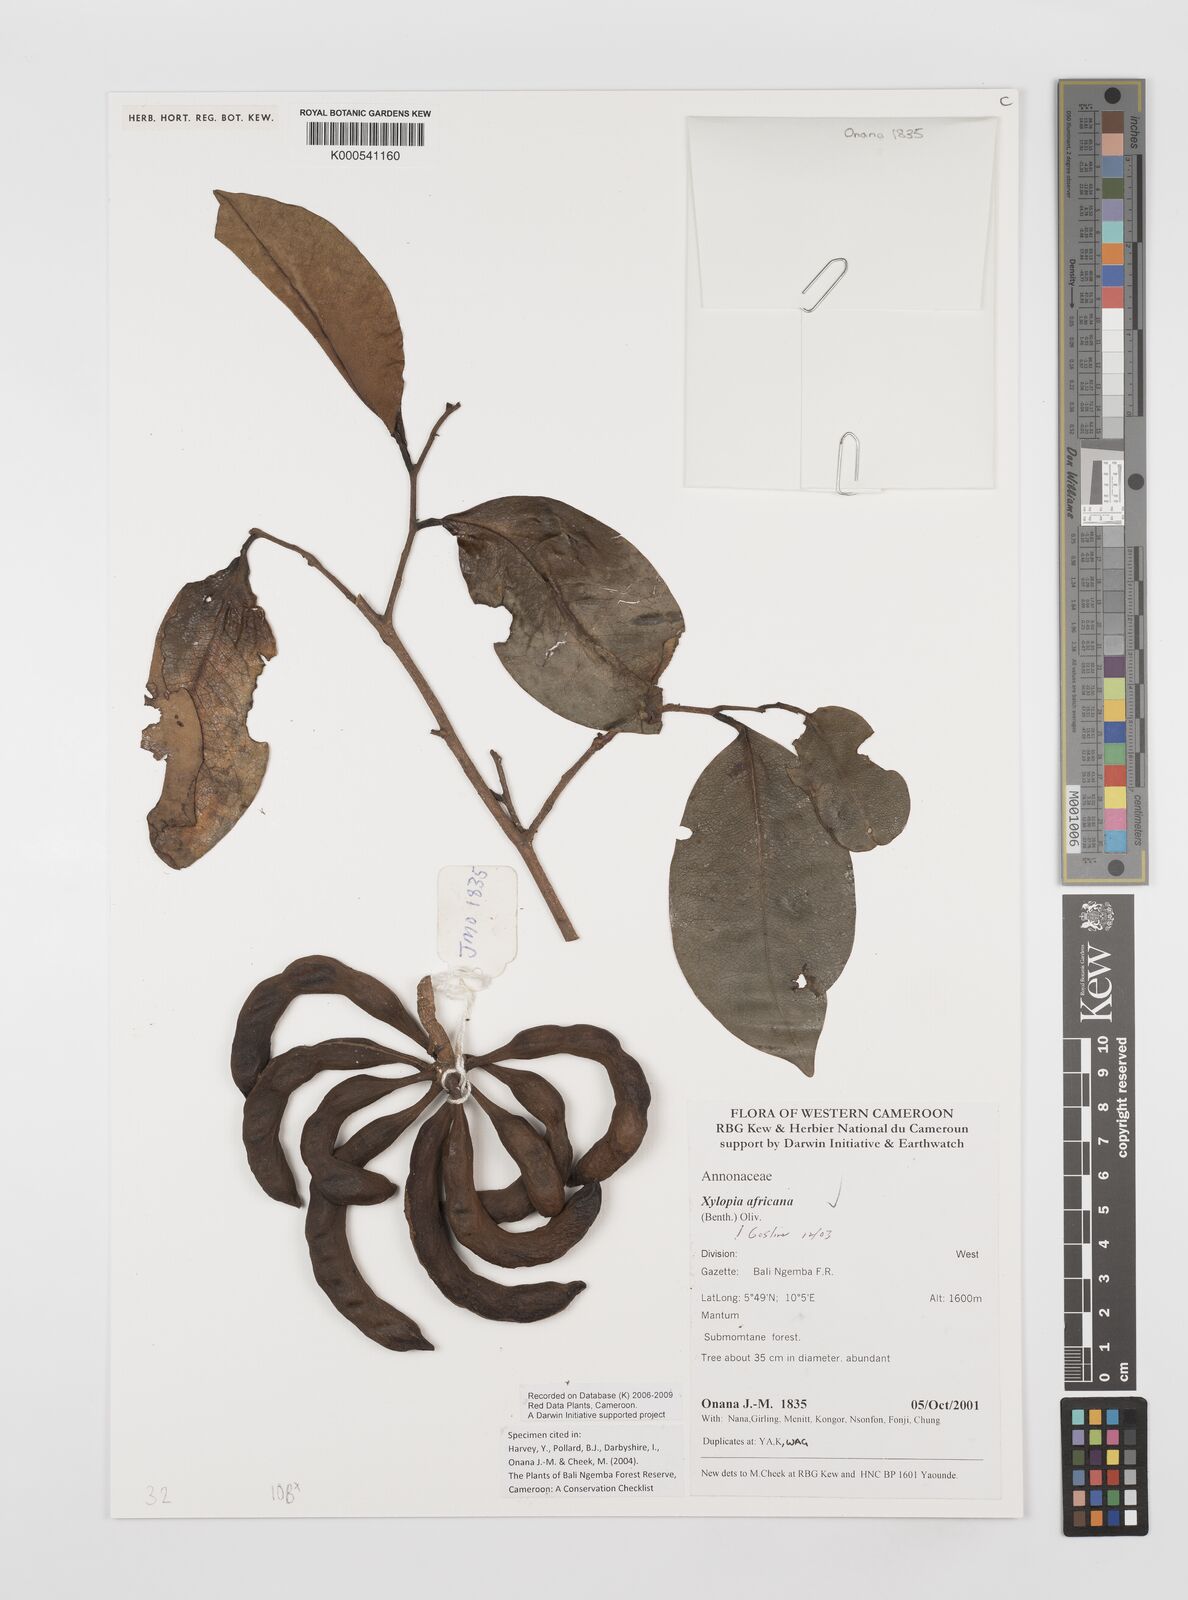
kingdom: Plantae
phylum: Tracheophyta
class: Magnoliopsida
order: Magnoliales
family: Annonaceae
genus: Xylopia
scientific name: Xylopia africana
